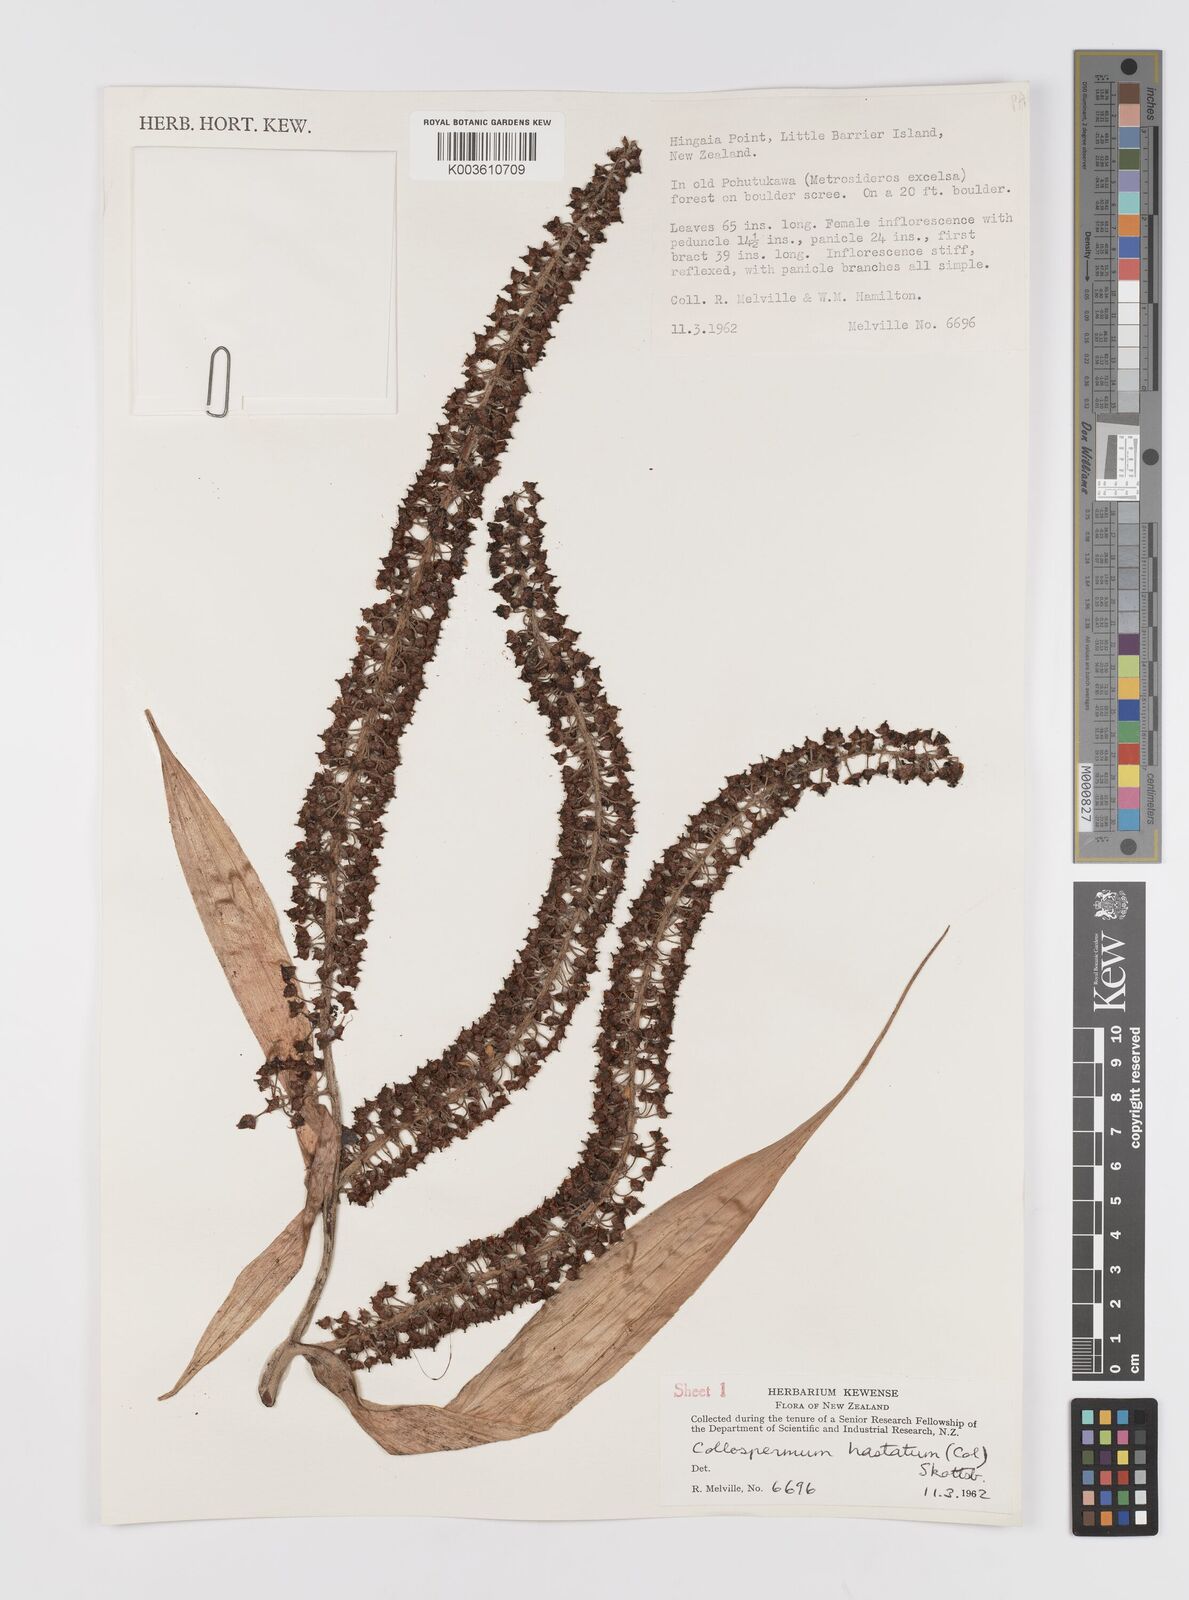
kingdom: Plantae
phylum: Tracheophyta
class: Liliopsida
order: Asparagales
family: Asteliaceae
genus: Astelia
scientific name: Astelia hastata
